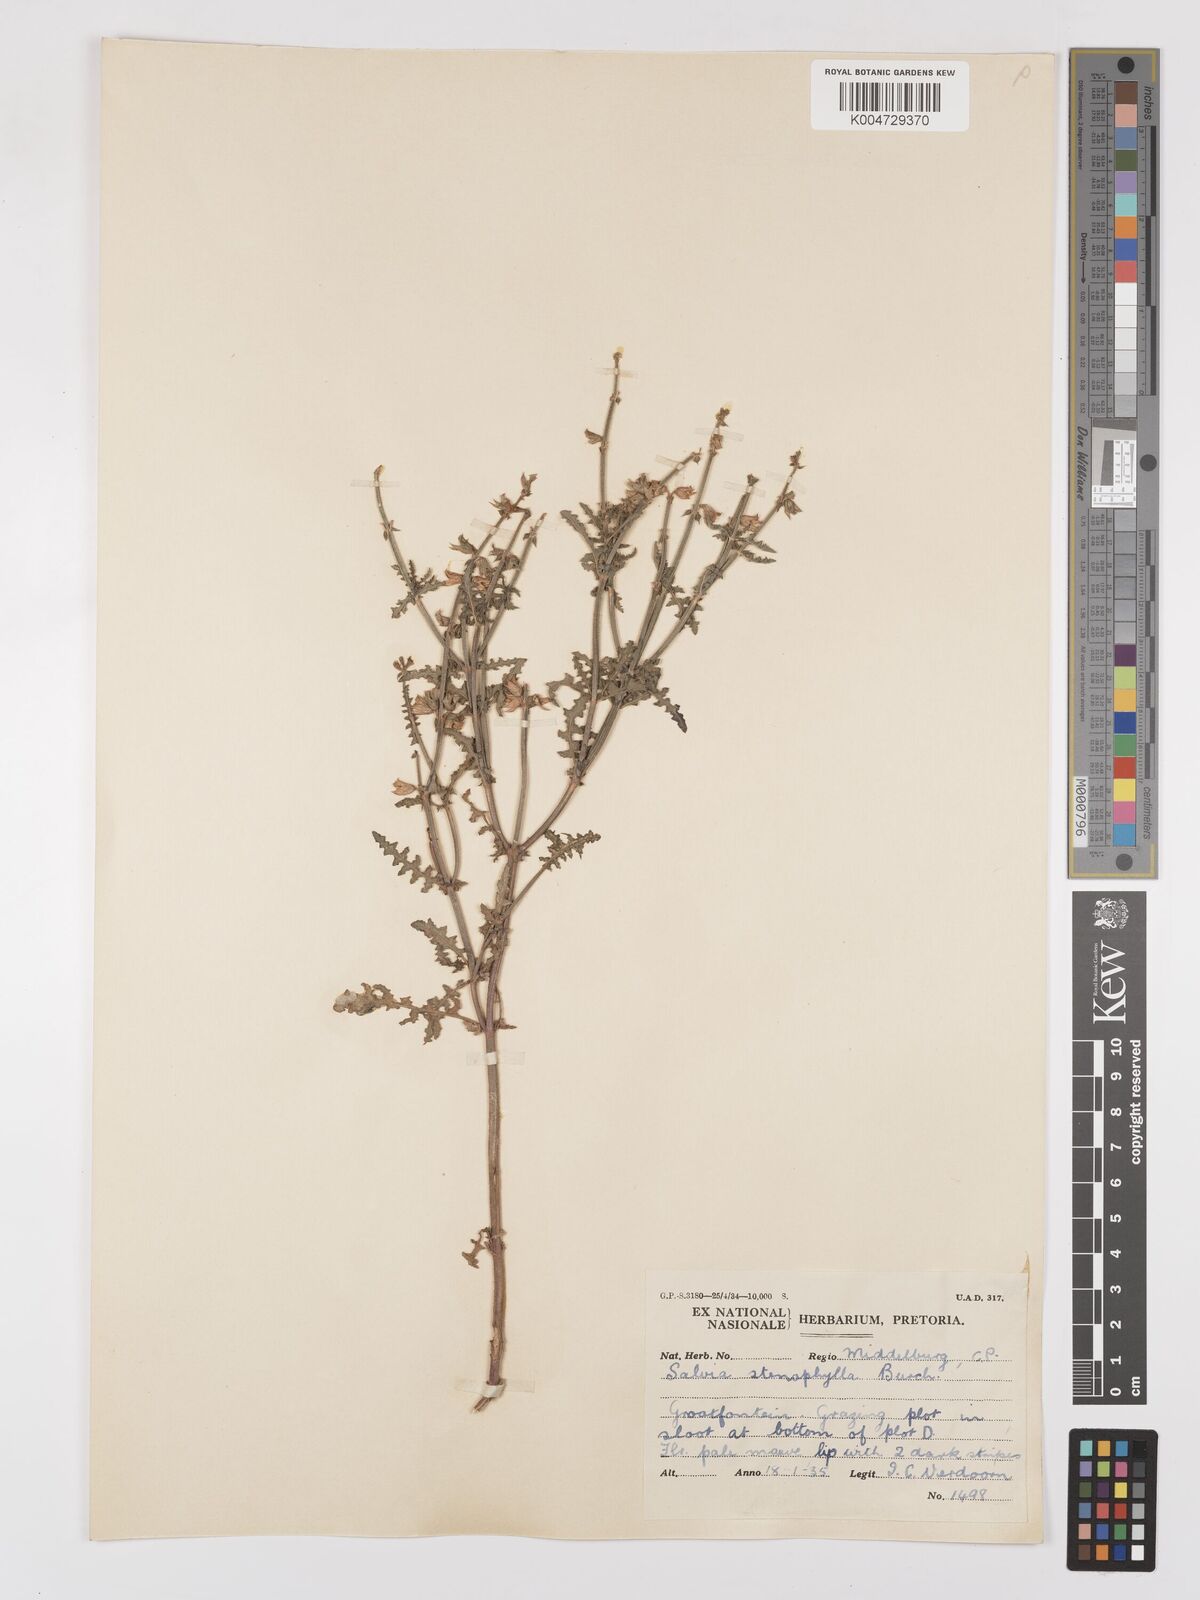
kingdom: Plantae
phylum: Tracheophyta
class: Magnoliopsida
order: Lamiales
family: Lamiaceae
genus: Salvia
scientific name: Salvia stenophylla
